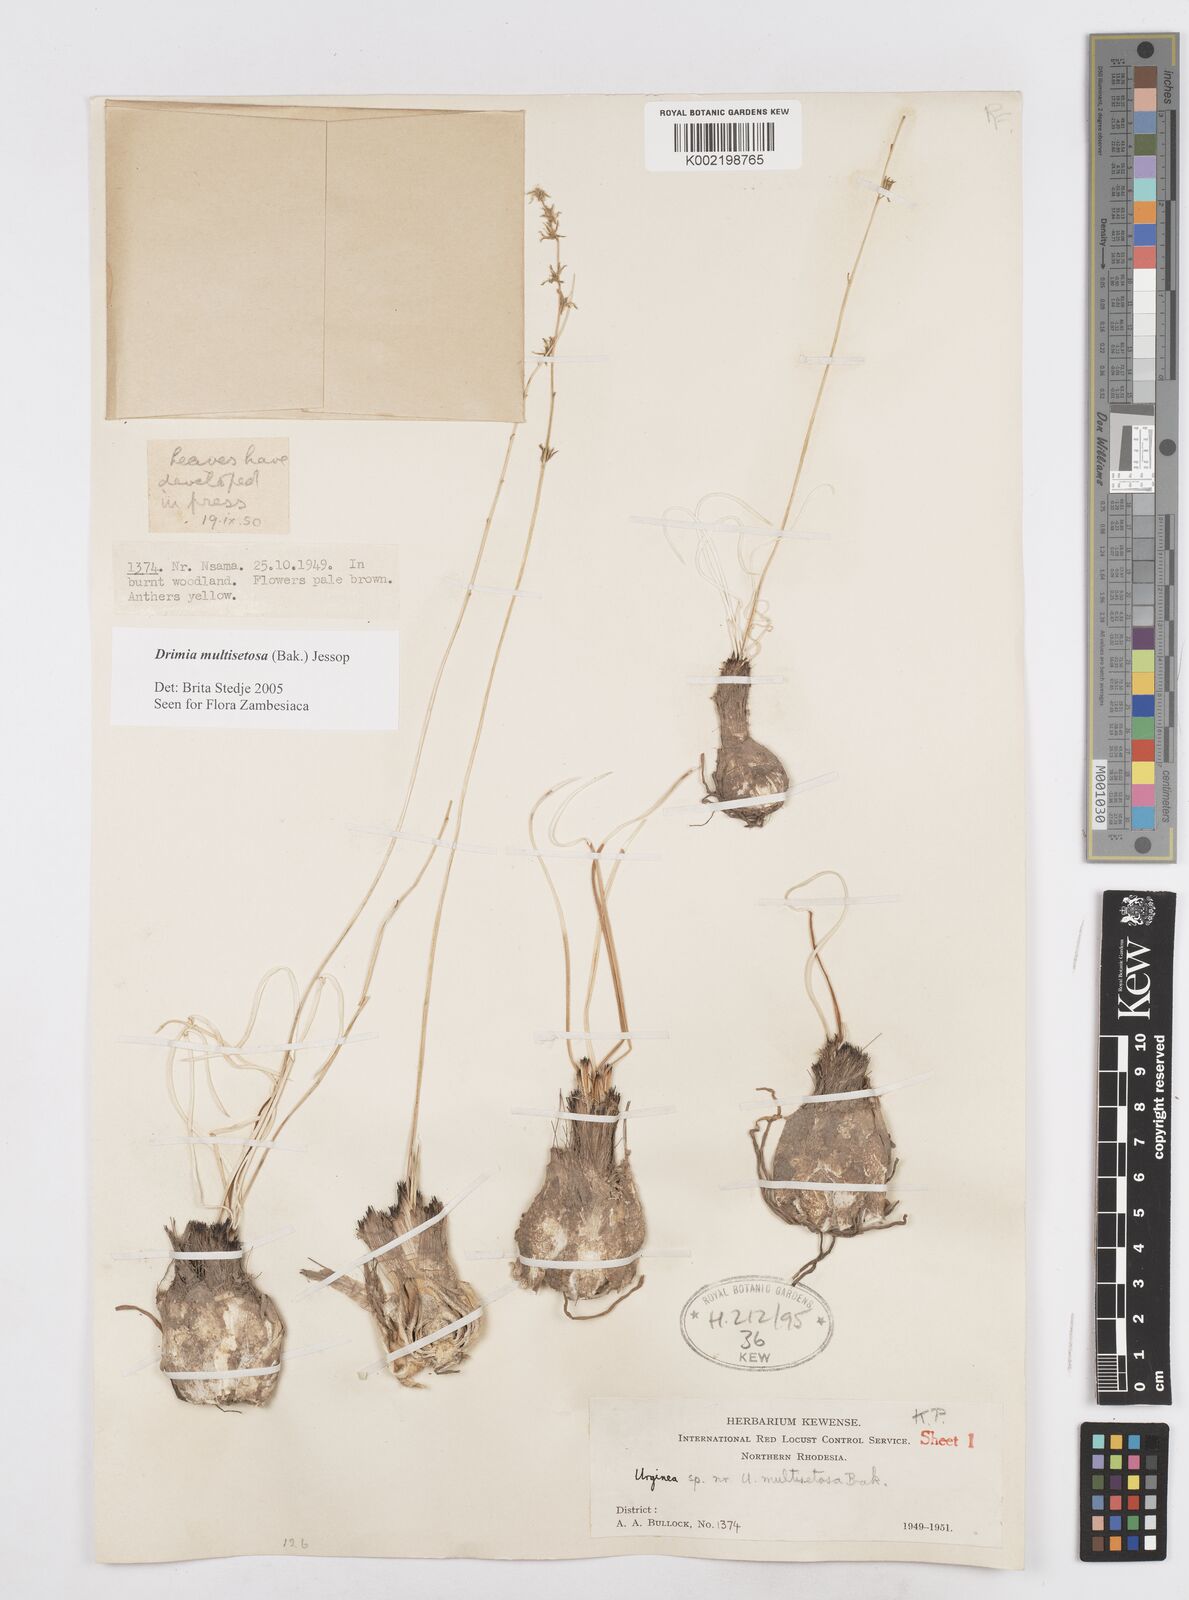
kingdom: Plantae
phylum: Tracheophyta
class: Liliopsida
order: Asparagales
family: Asparagaceae
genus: Drimia
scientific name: Drimia multisetosa
